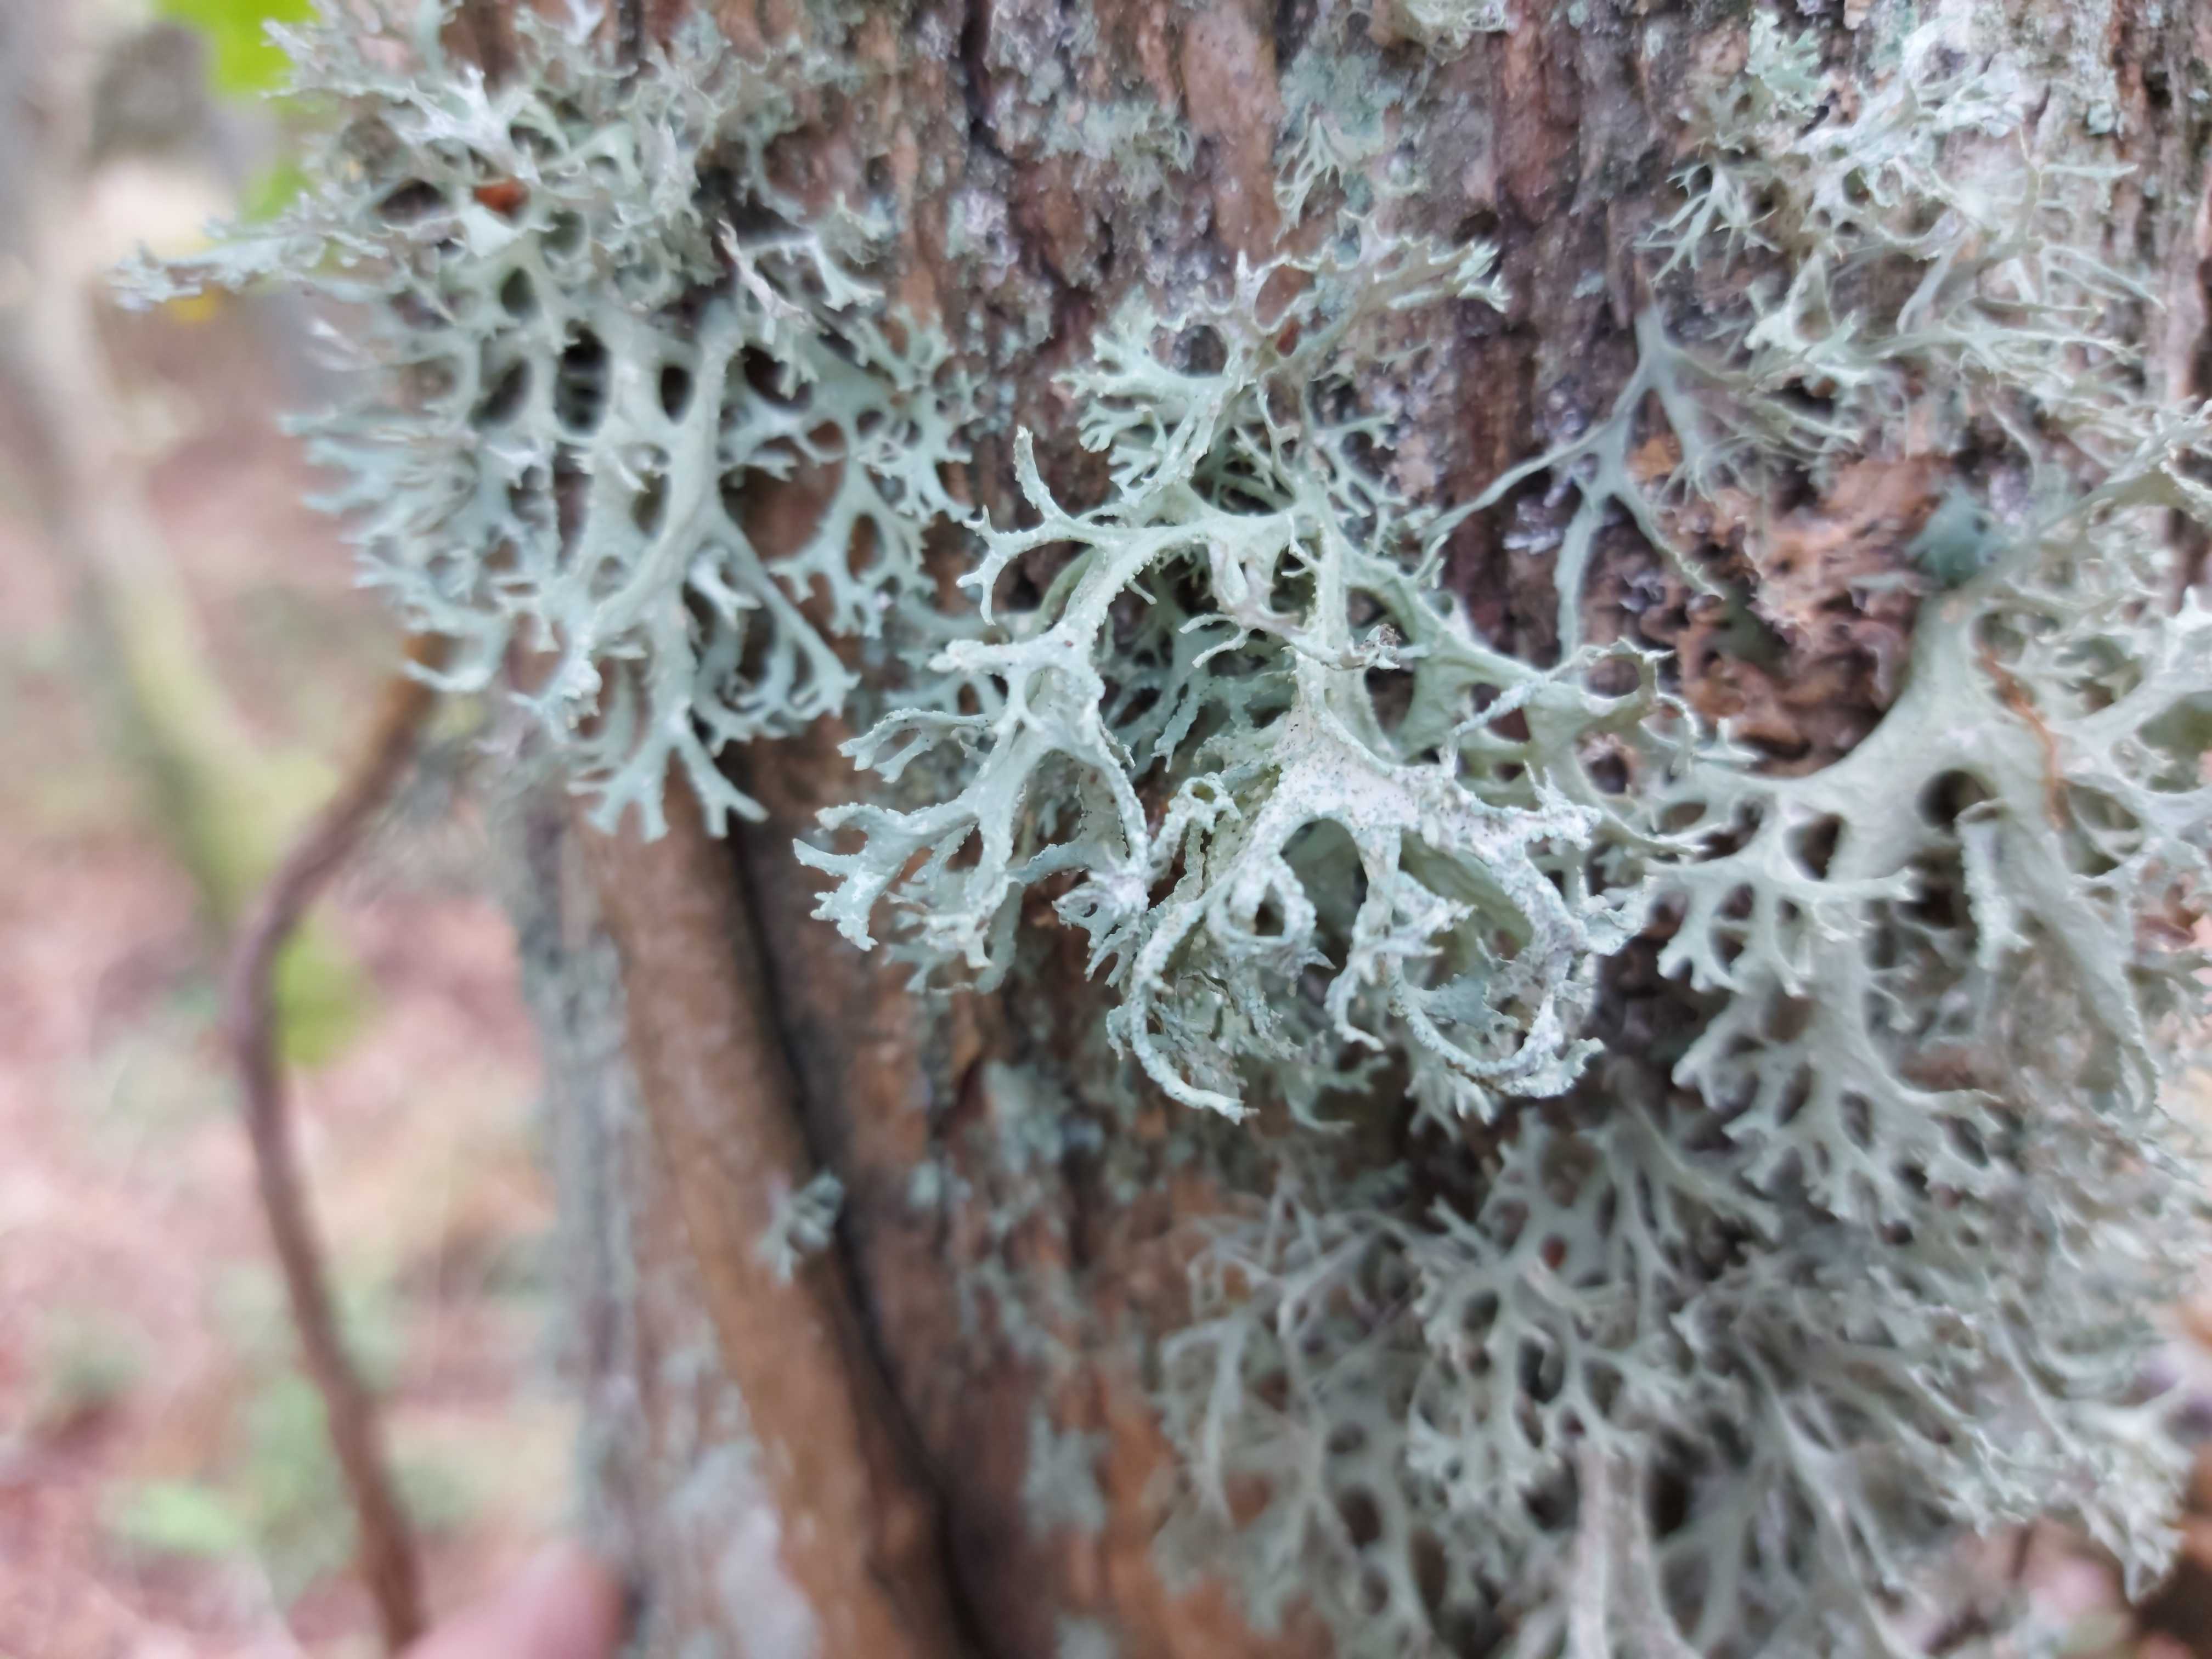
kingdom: Fungi
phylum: Ascomycota
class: Lecanoromycetes
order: Lecanorales
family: Parmeliaceae
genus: Evernia
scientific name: Evernia prunastri
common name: almindelig slåenlav
